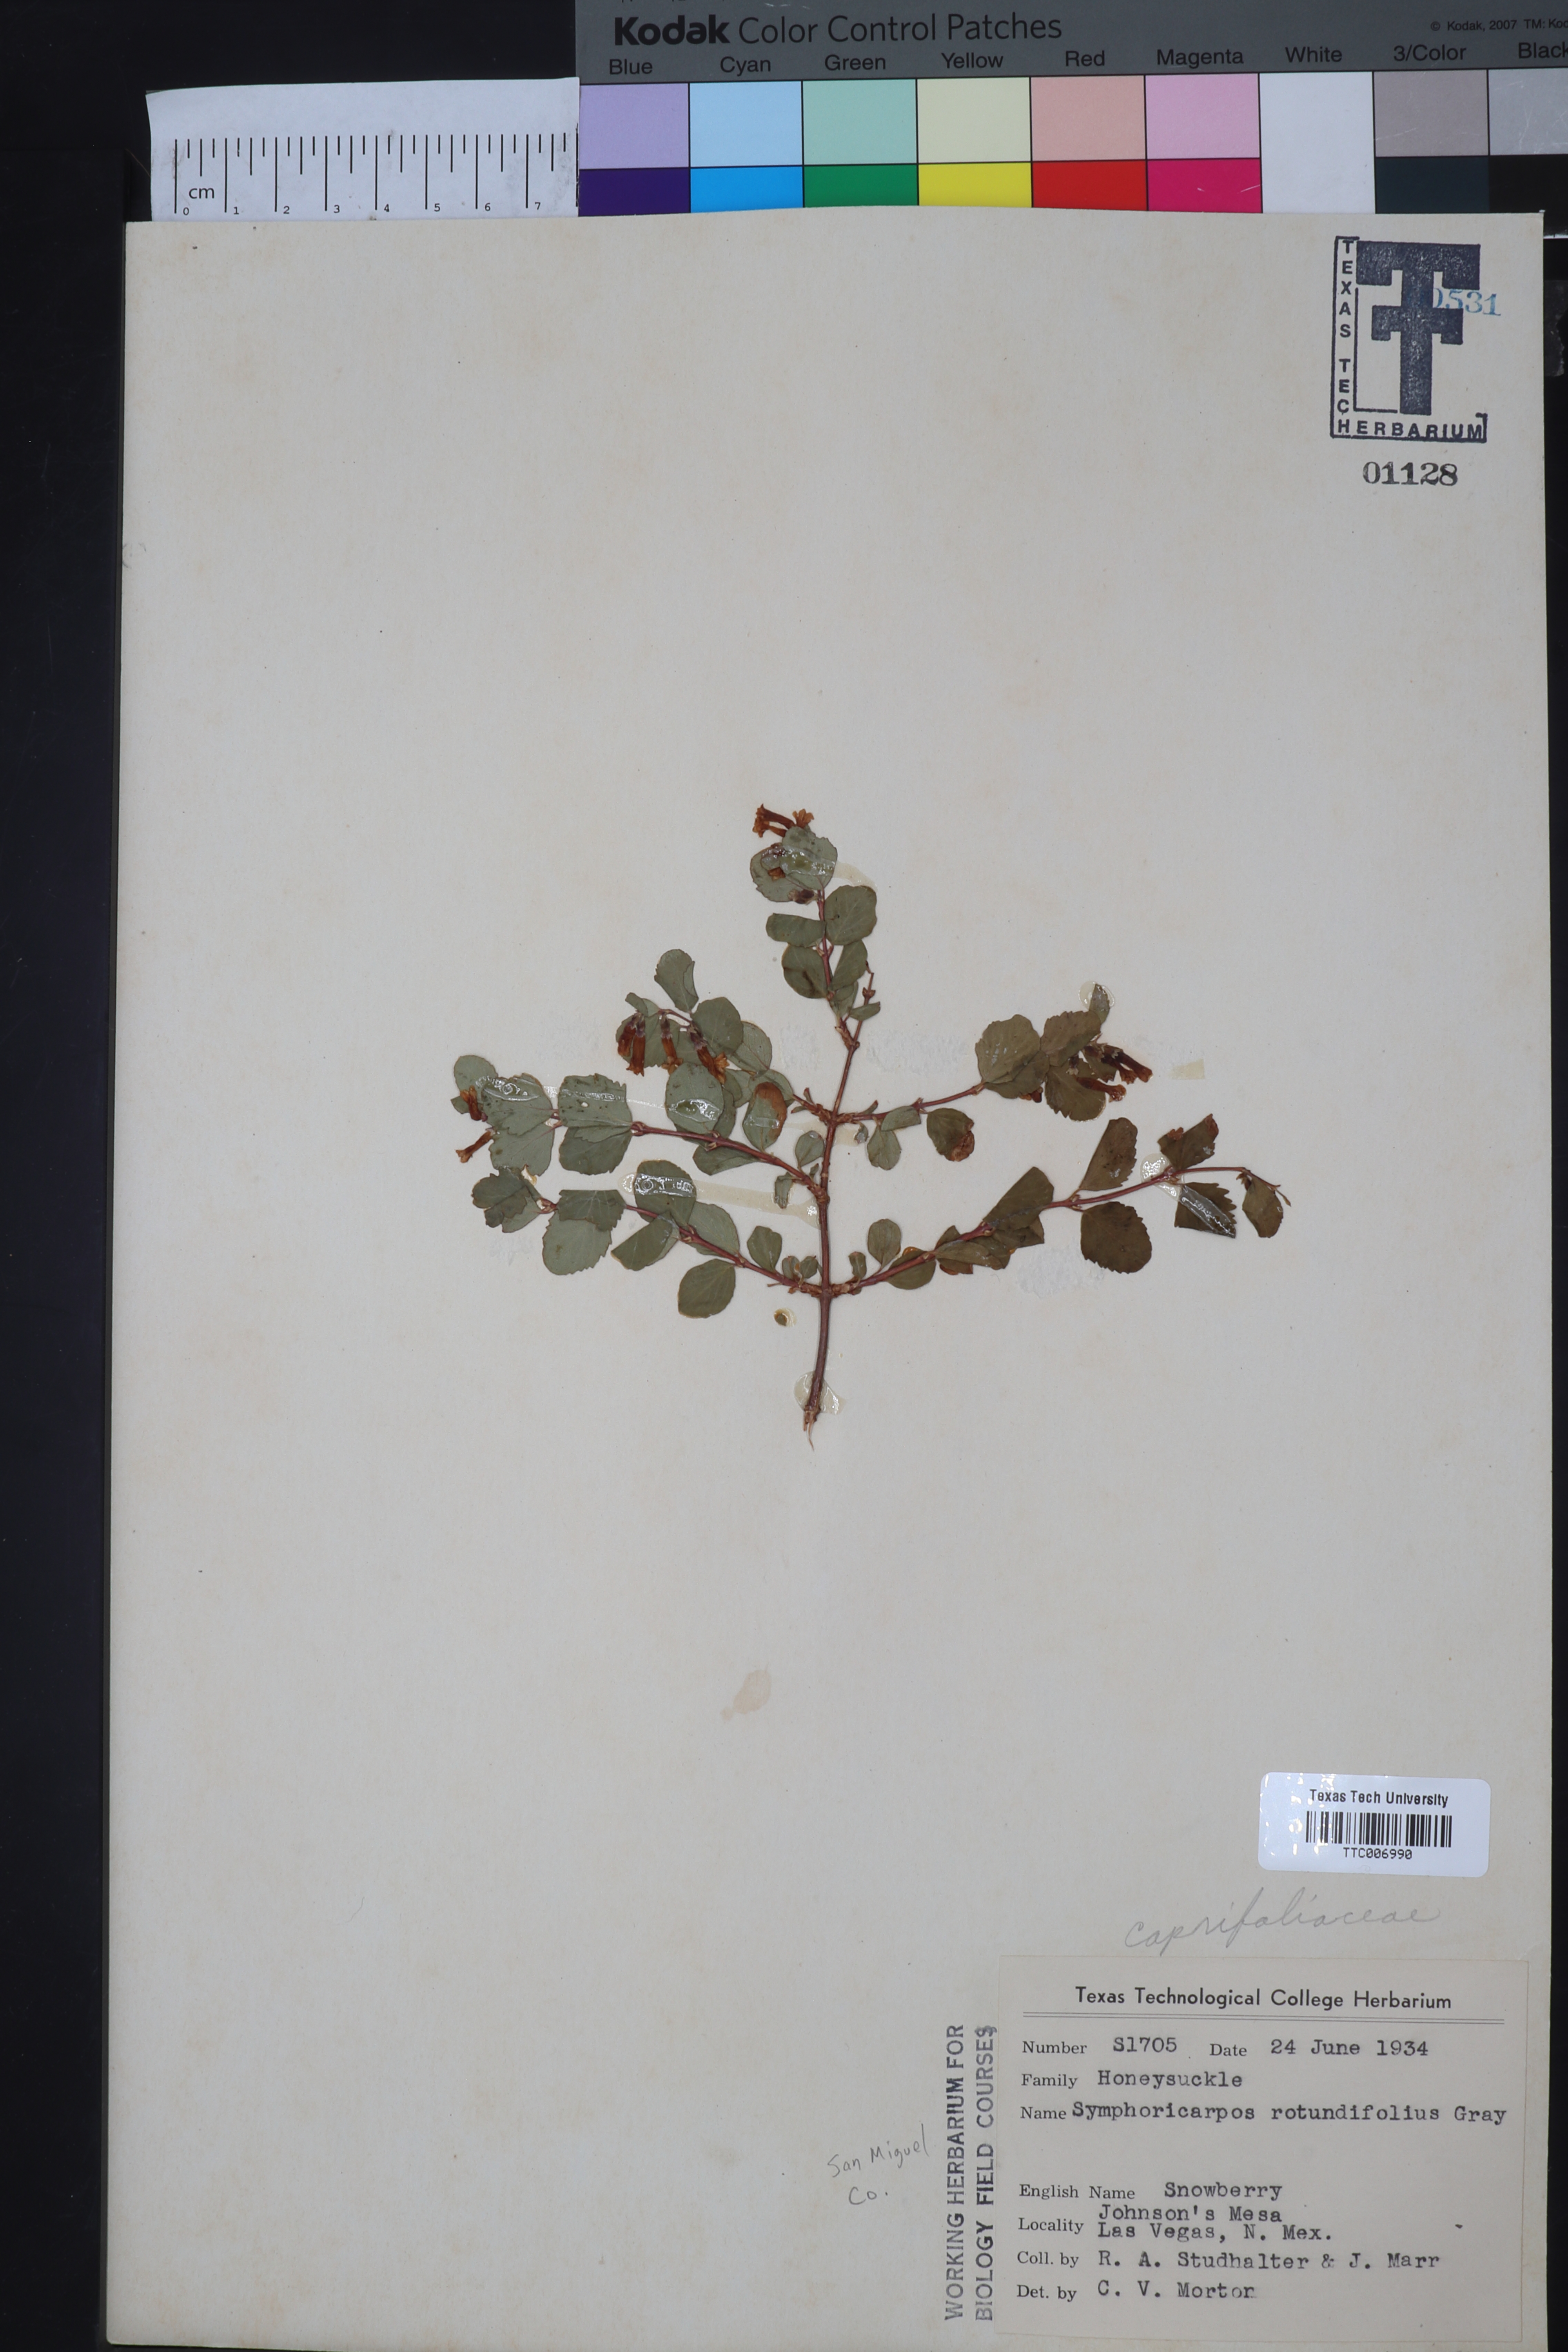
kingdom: Plantae
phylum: Tracheophyta
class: Magnoliopsida
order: Dipsacales
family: Caprifoliaceae
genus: Symphoricarpos
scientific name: Symphoricarpos rotundifolius
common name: Round-leaved snowberry
